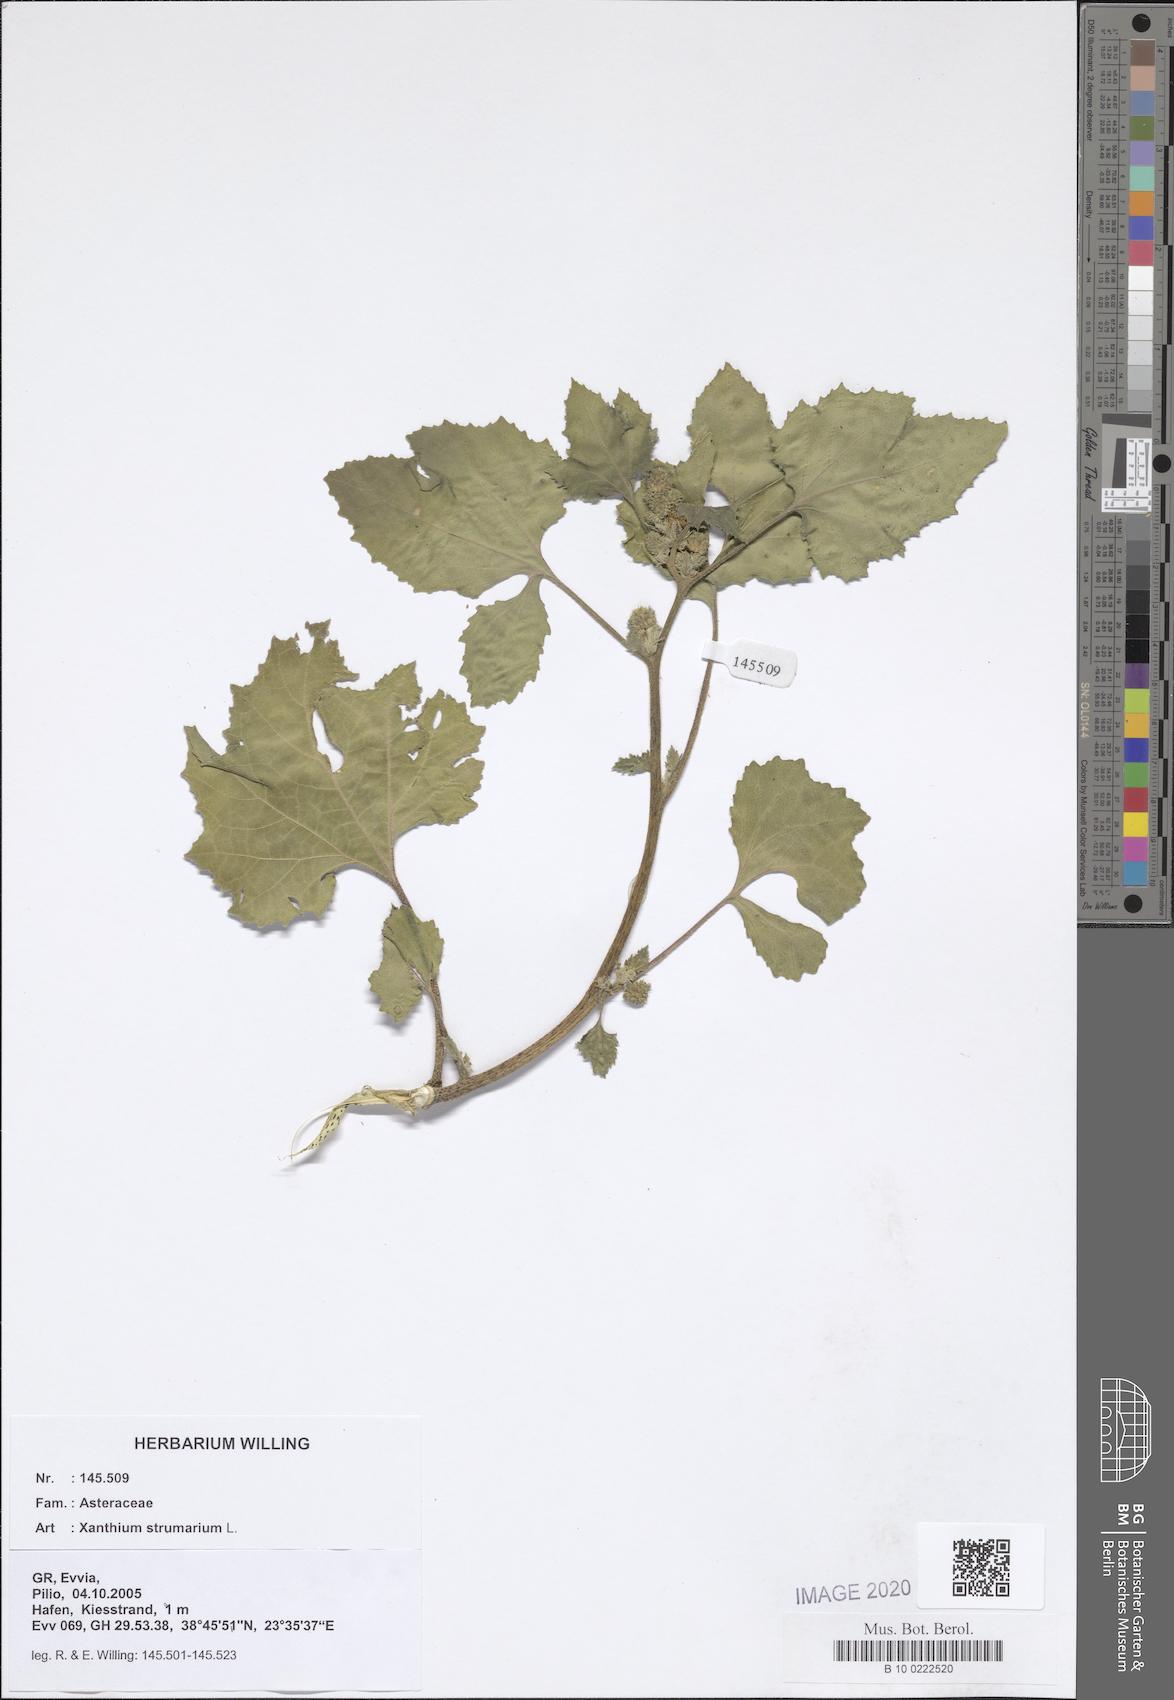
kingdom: Plantae
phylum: Tracheophyta
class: Magnoliopsida
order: Asterales
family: Asteraceae
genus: Xanthium
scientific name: Xanthium strumarium
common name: Rough cocklebur
